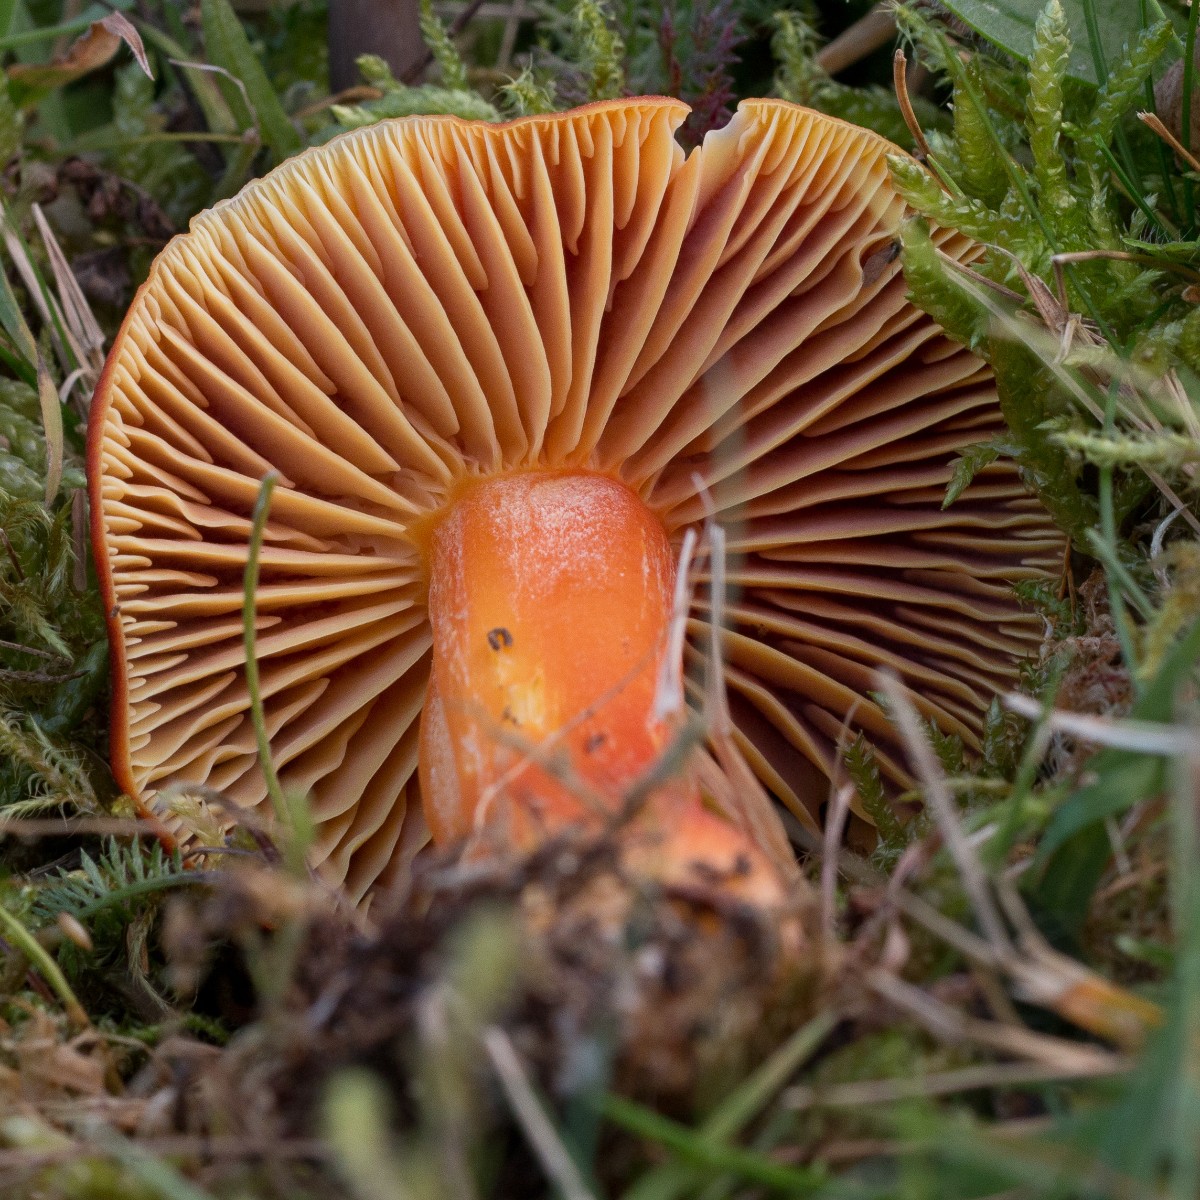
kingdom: Fungi
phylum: Basidiomycota
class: Agaricomycetes
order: Agaricales
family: Hygrophoraceae
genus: Hygrocybe
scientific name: Hygrocybe punicea
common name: skarlagen-vokshat
